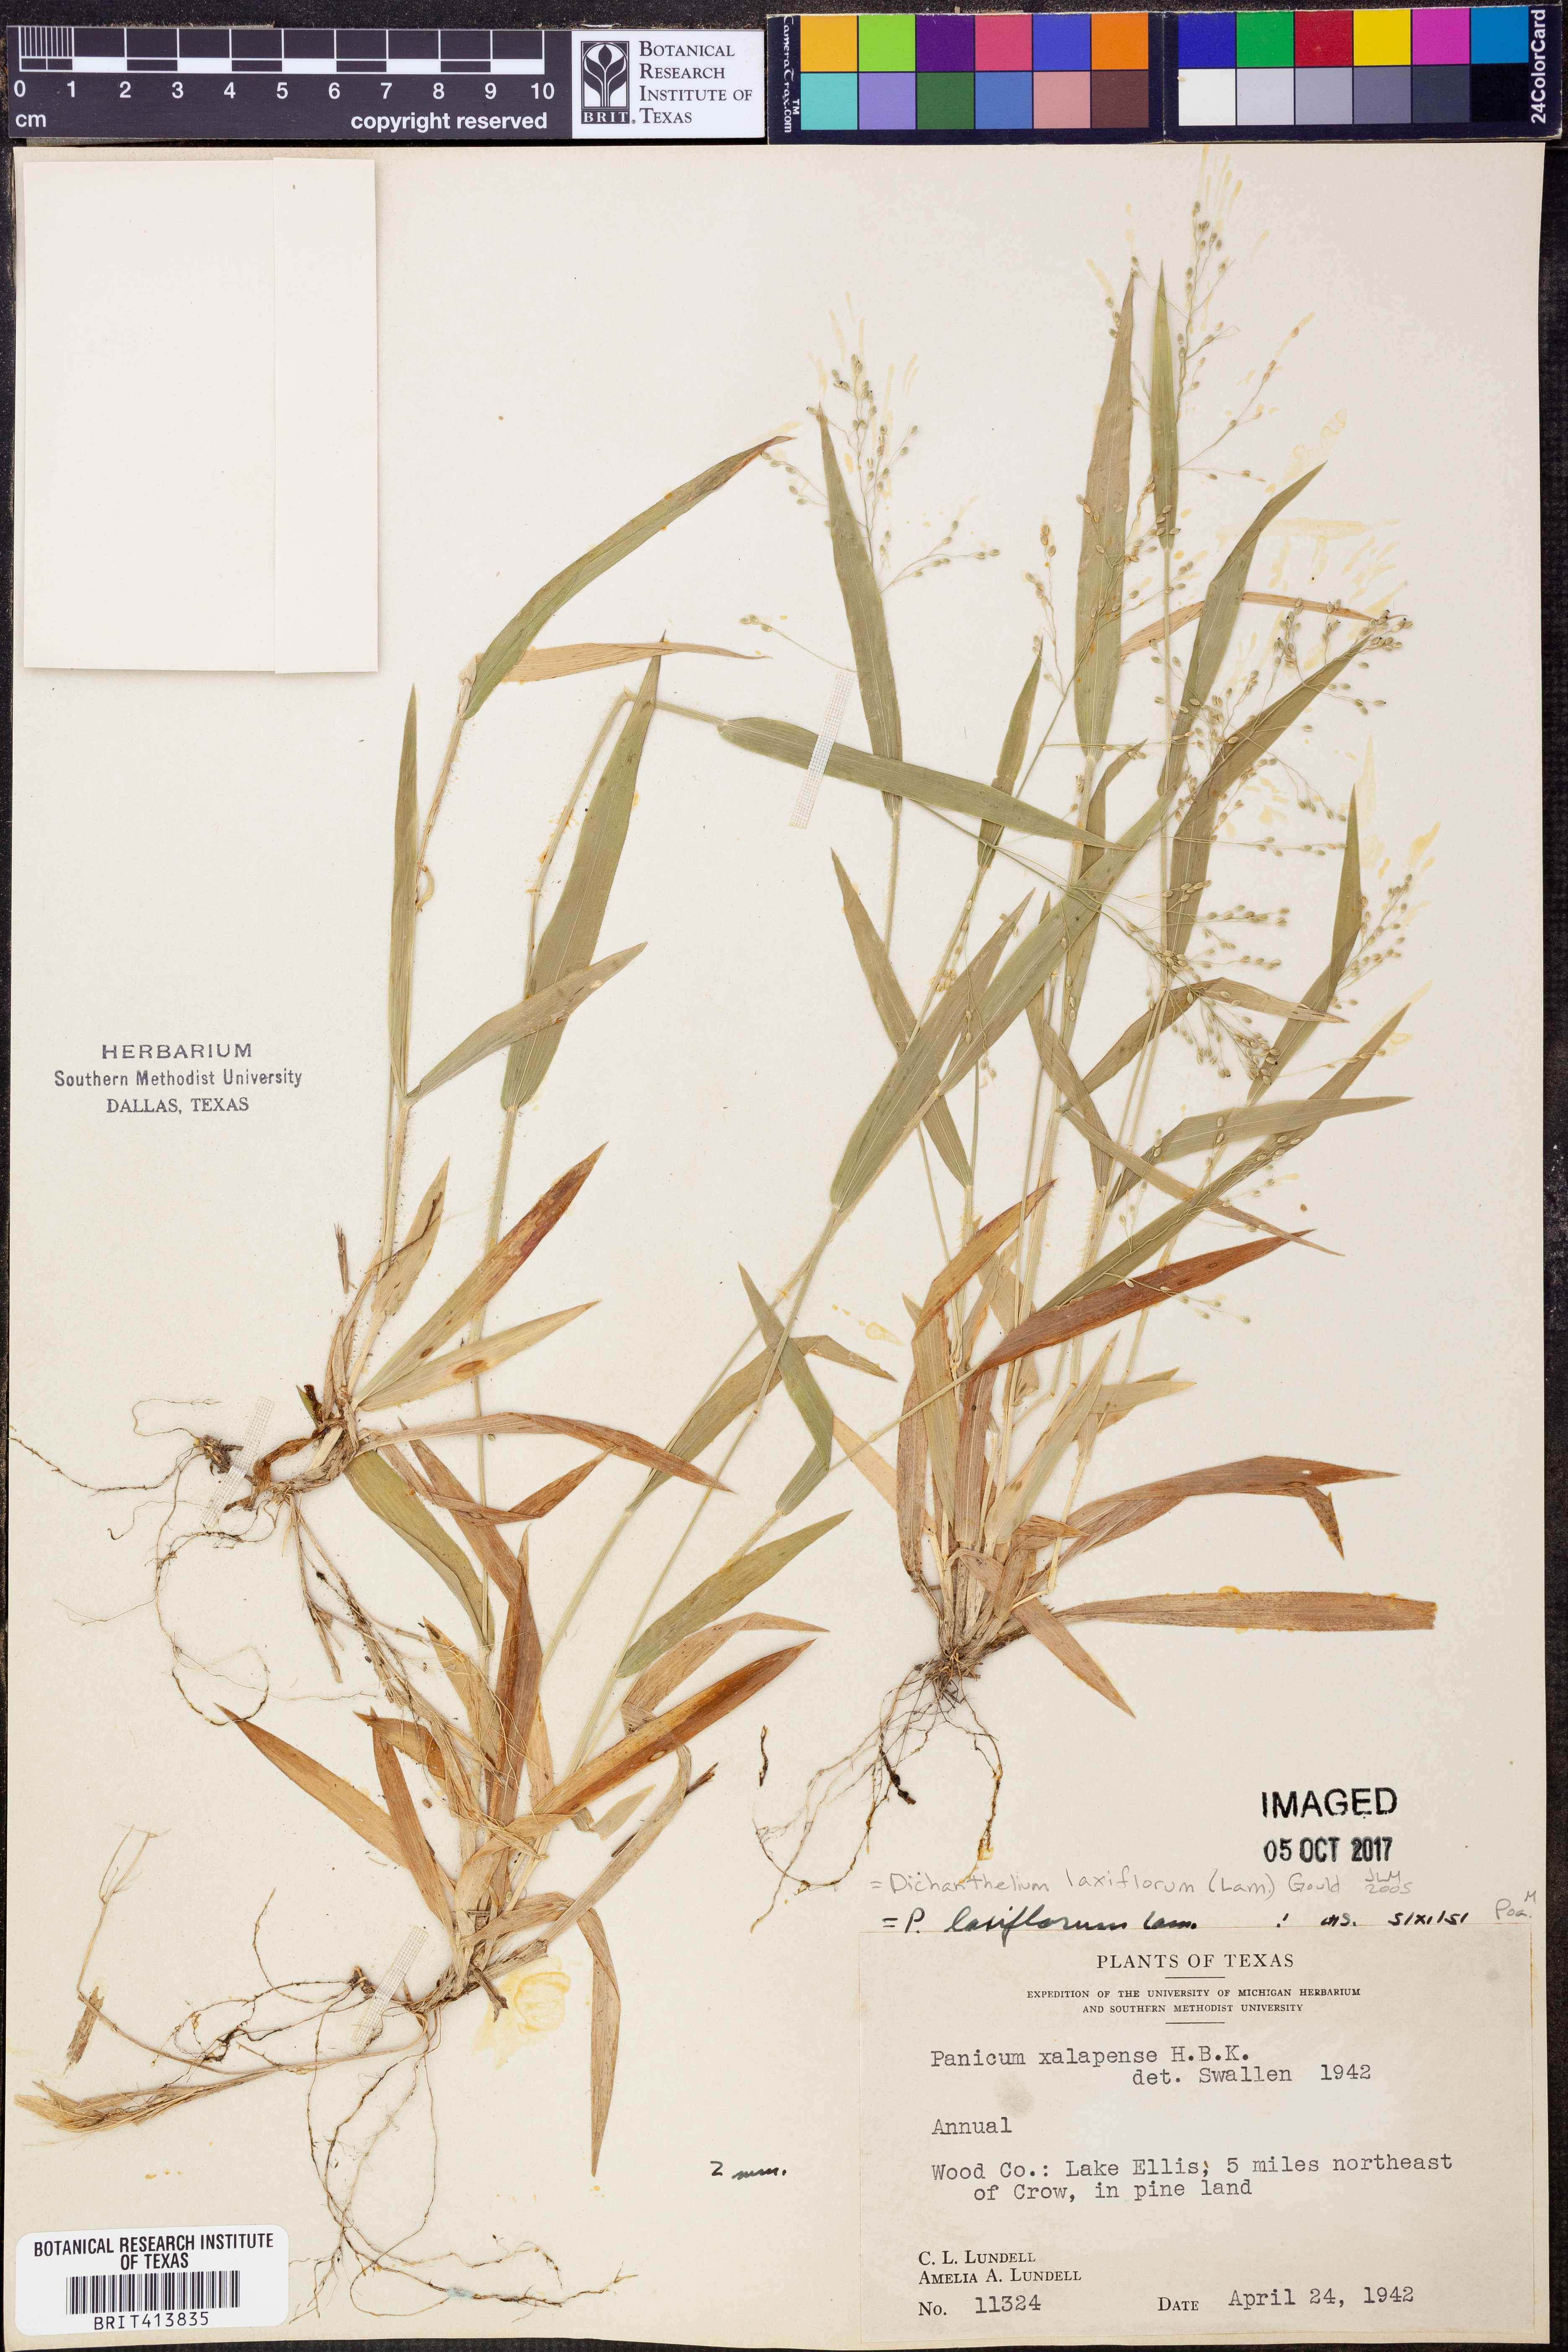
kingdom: Plantae
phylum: Tracheophyta
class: Liliopsida
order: Poales
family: Poaceae
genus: Dichanthelium
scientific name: Dichanthelium laxiflorum
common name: Soft-tuft panic grass
